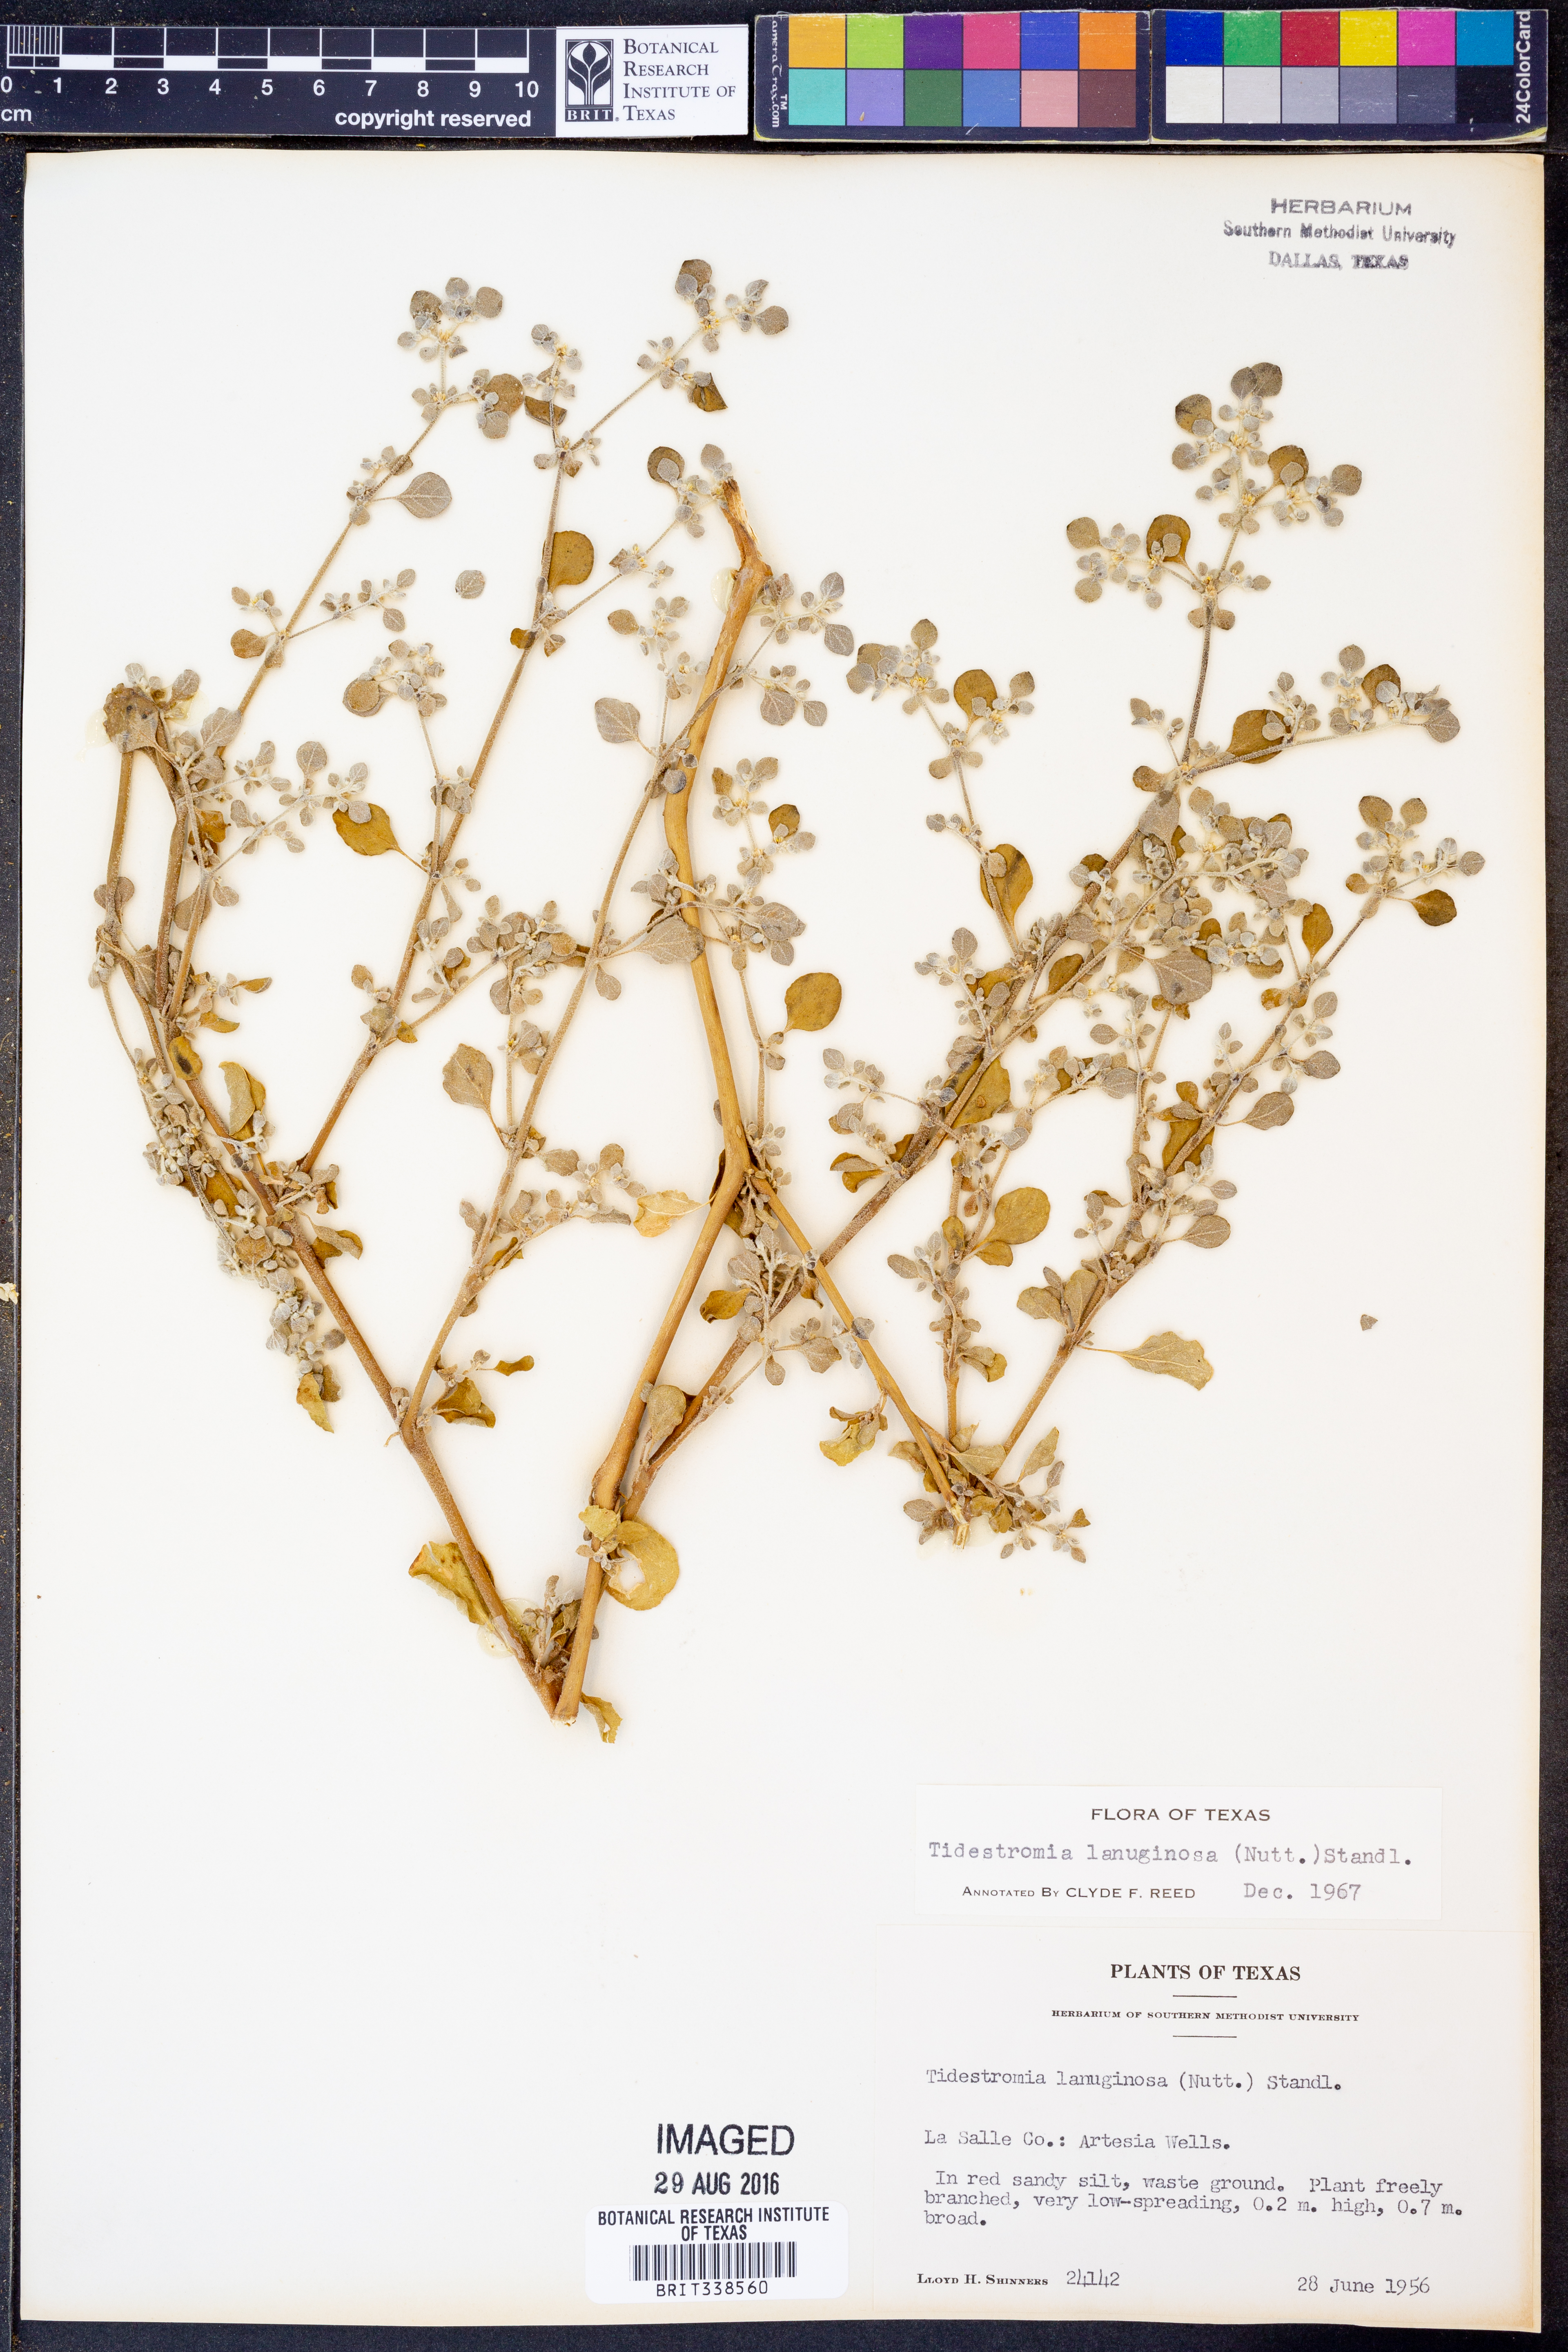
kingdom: Plantae
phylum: Tracheophyta
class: Magnoliopsida
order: Caryophyllales
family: Amaranthaceae
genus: Tidestromia
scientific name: Tidestromia lanuginosa
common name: Woolly tidestromia
